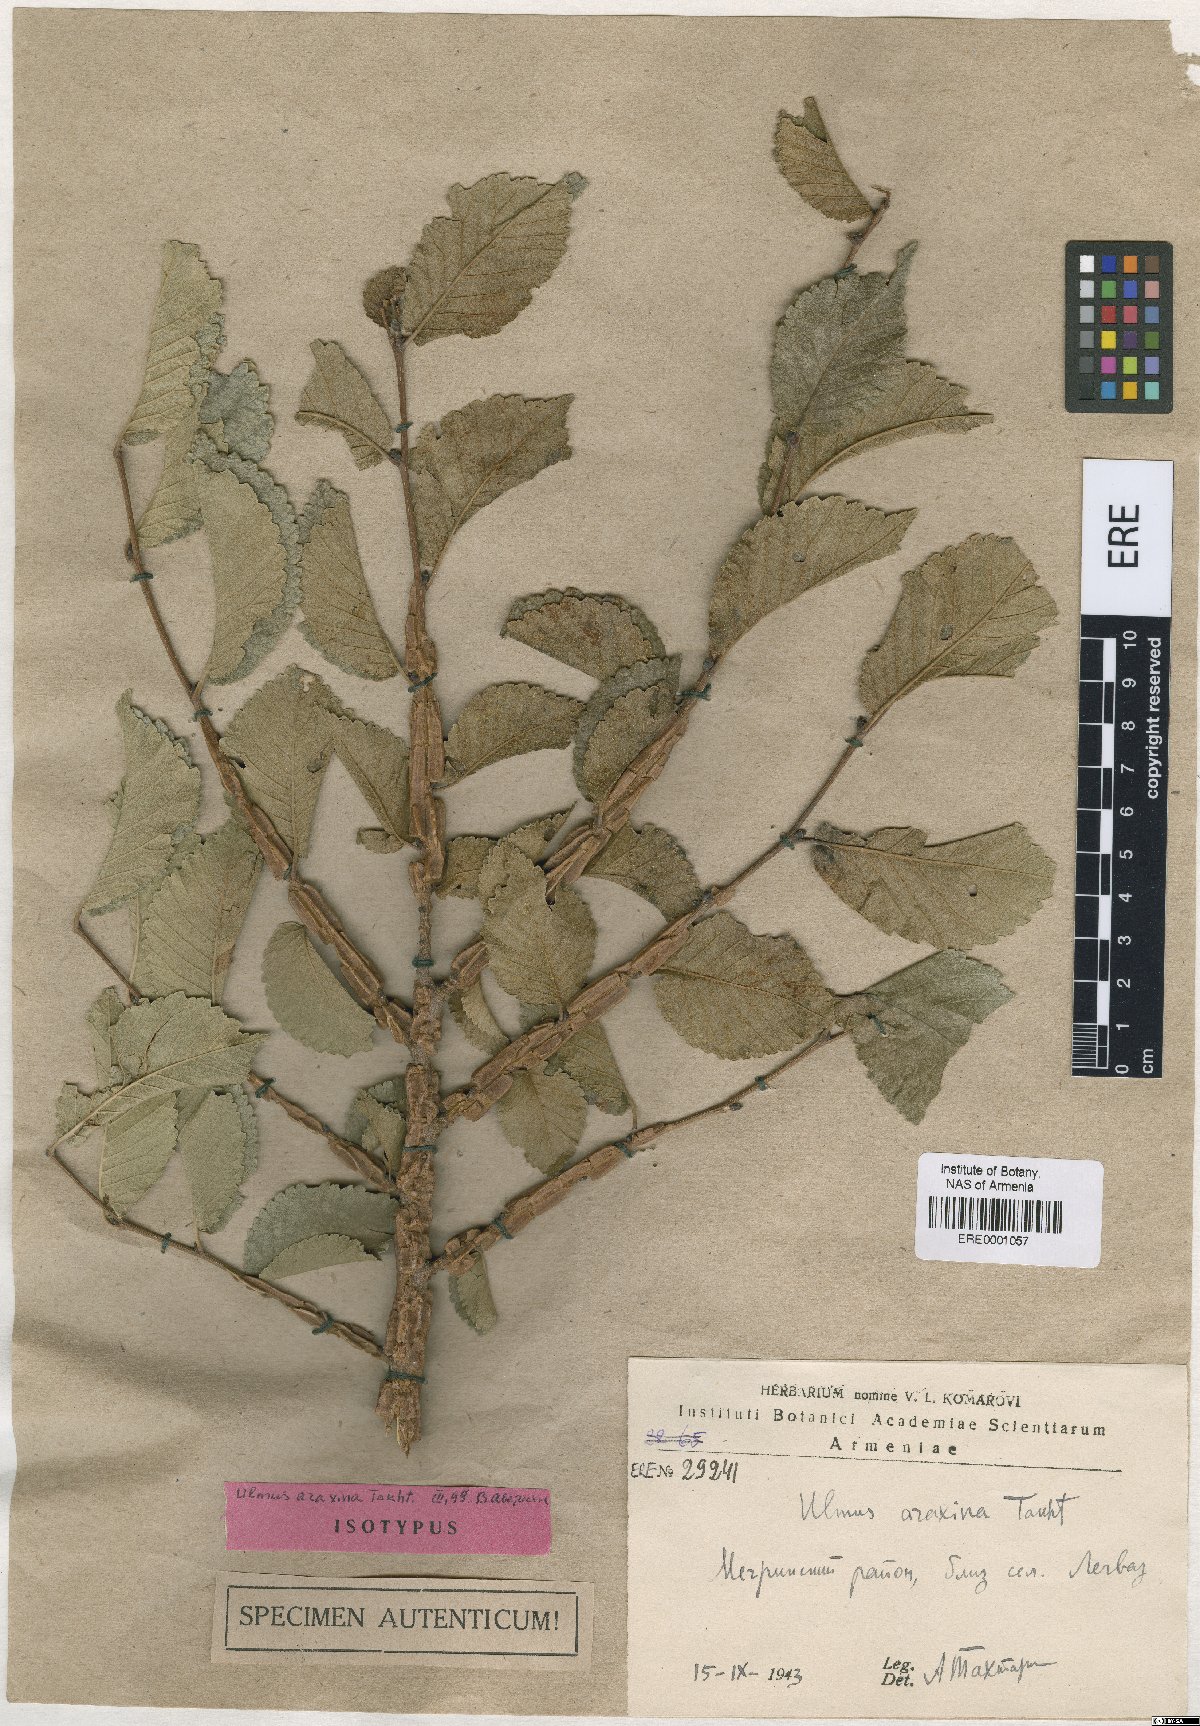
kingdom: Plantae
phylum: Tracheophyta
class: Magnoliopsida
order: Rosales
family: Ulmaceae
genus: Ulmus
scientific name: Ulmus minor
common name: Small-leaved elm
